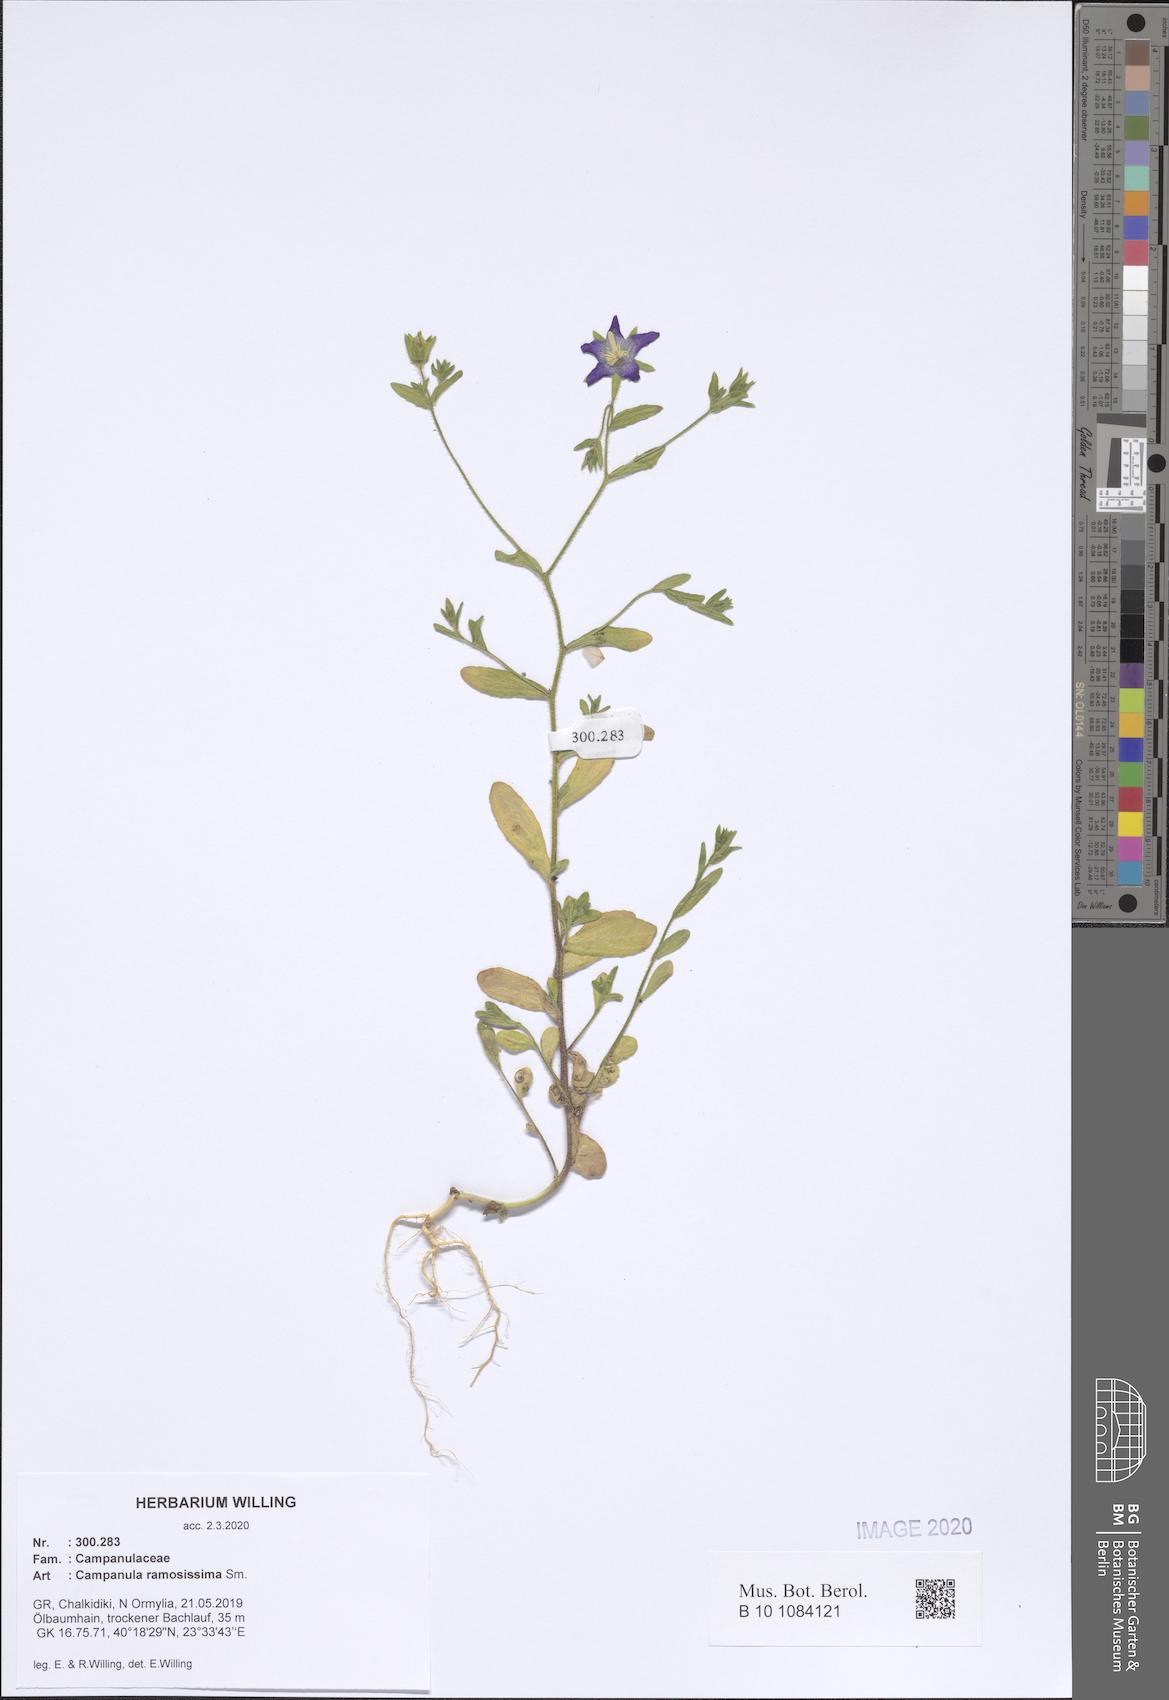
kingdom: Plantae
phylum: Tracheophyta
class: Magnoliopsida
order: Asterales
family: Campanulaceae
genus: Campanula
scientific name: Campanula ramosissima
